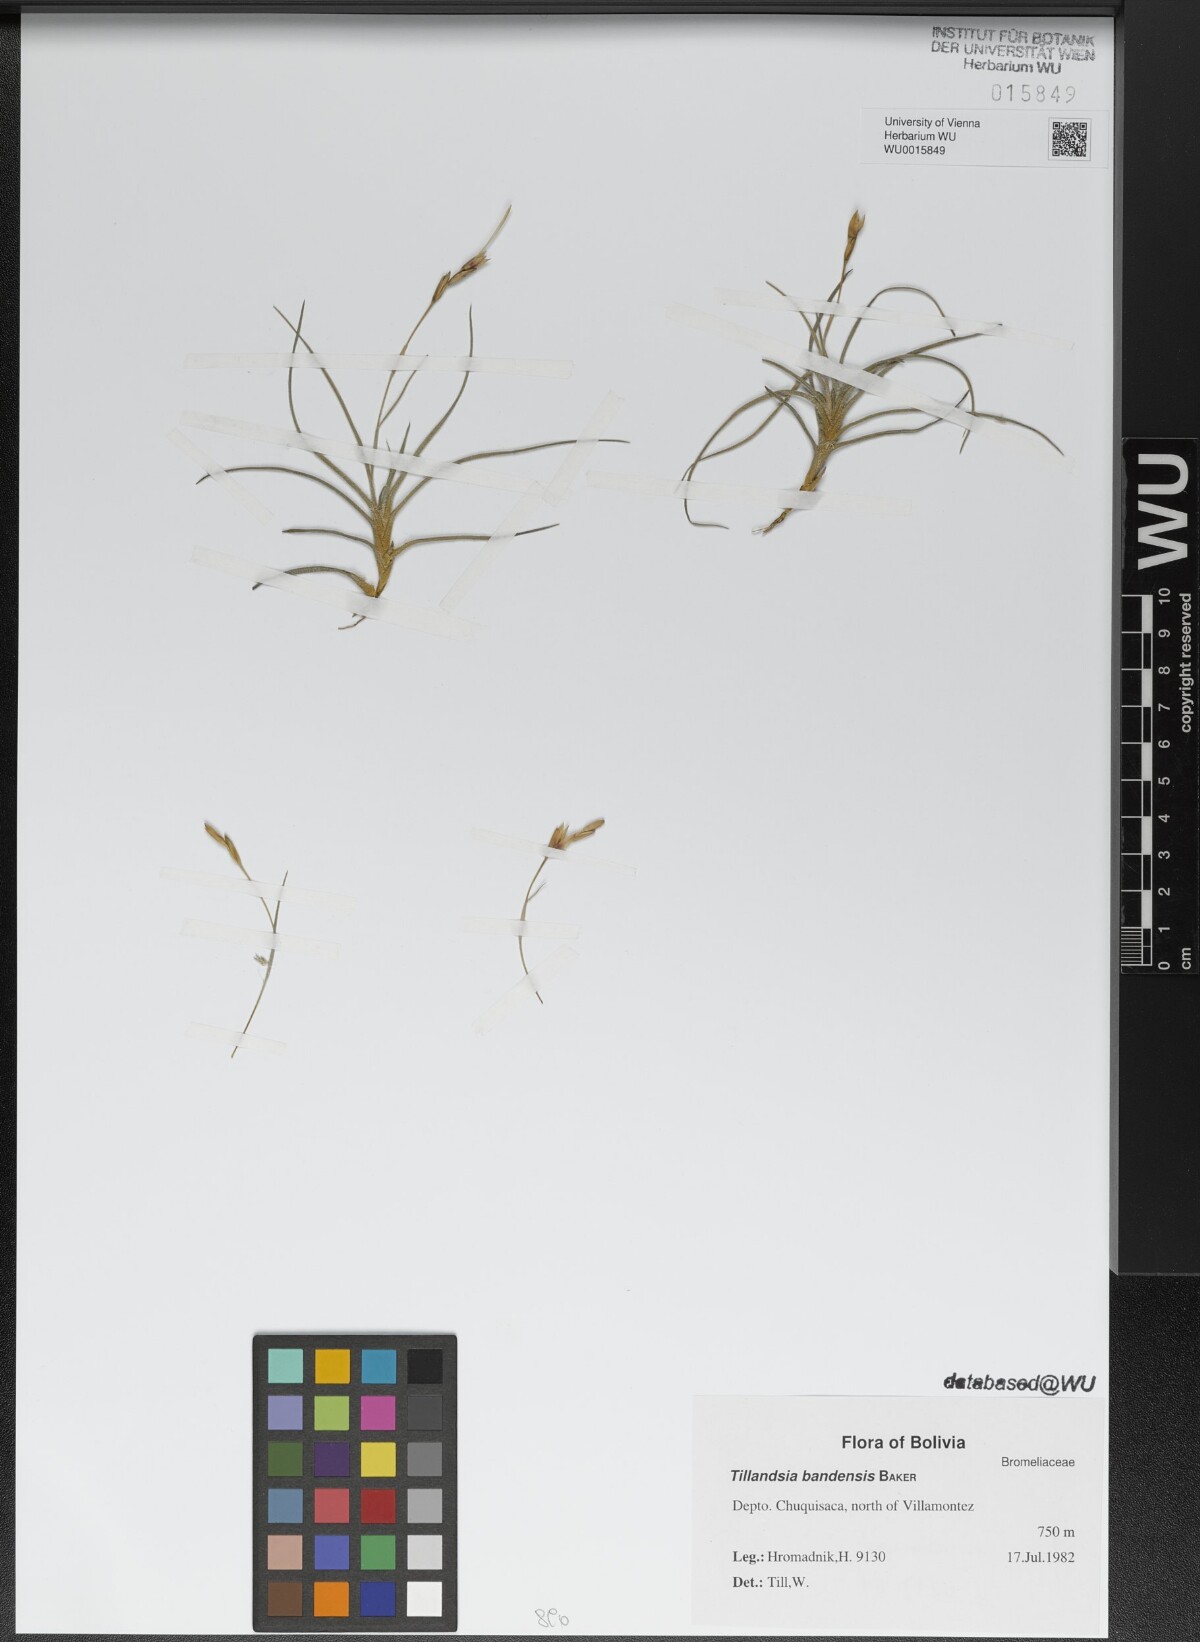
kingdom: Plantae
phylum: Tracheophyta
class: Liliopsida
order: Poales
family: Bromeliaceae
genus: Tillandsia
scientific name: Tillandsia bandensis
